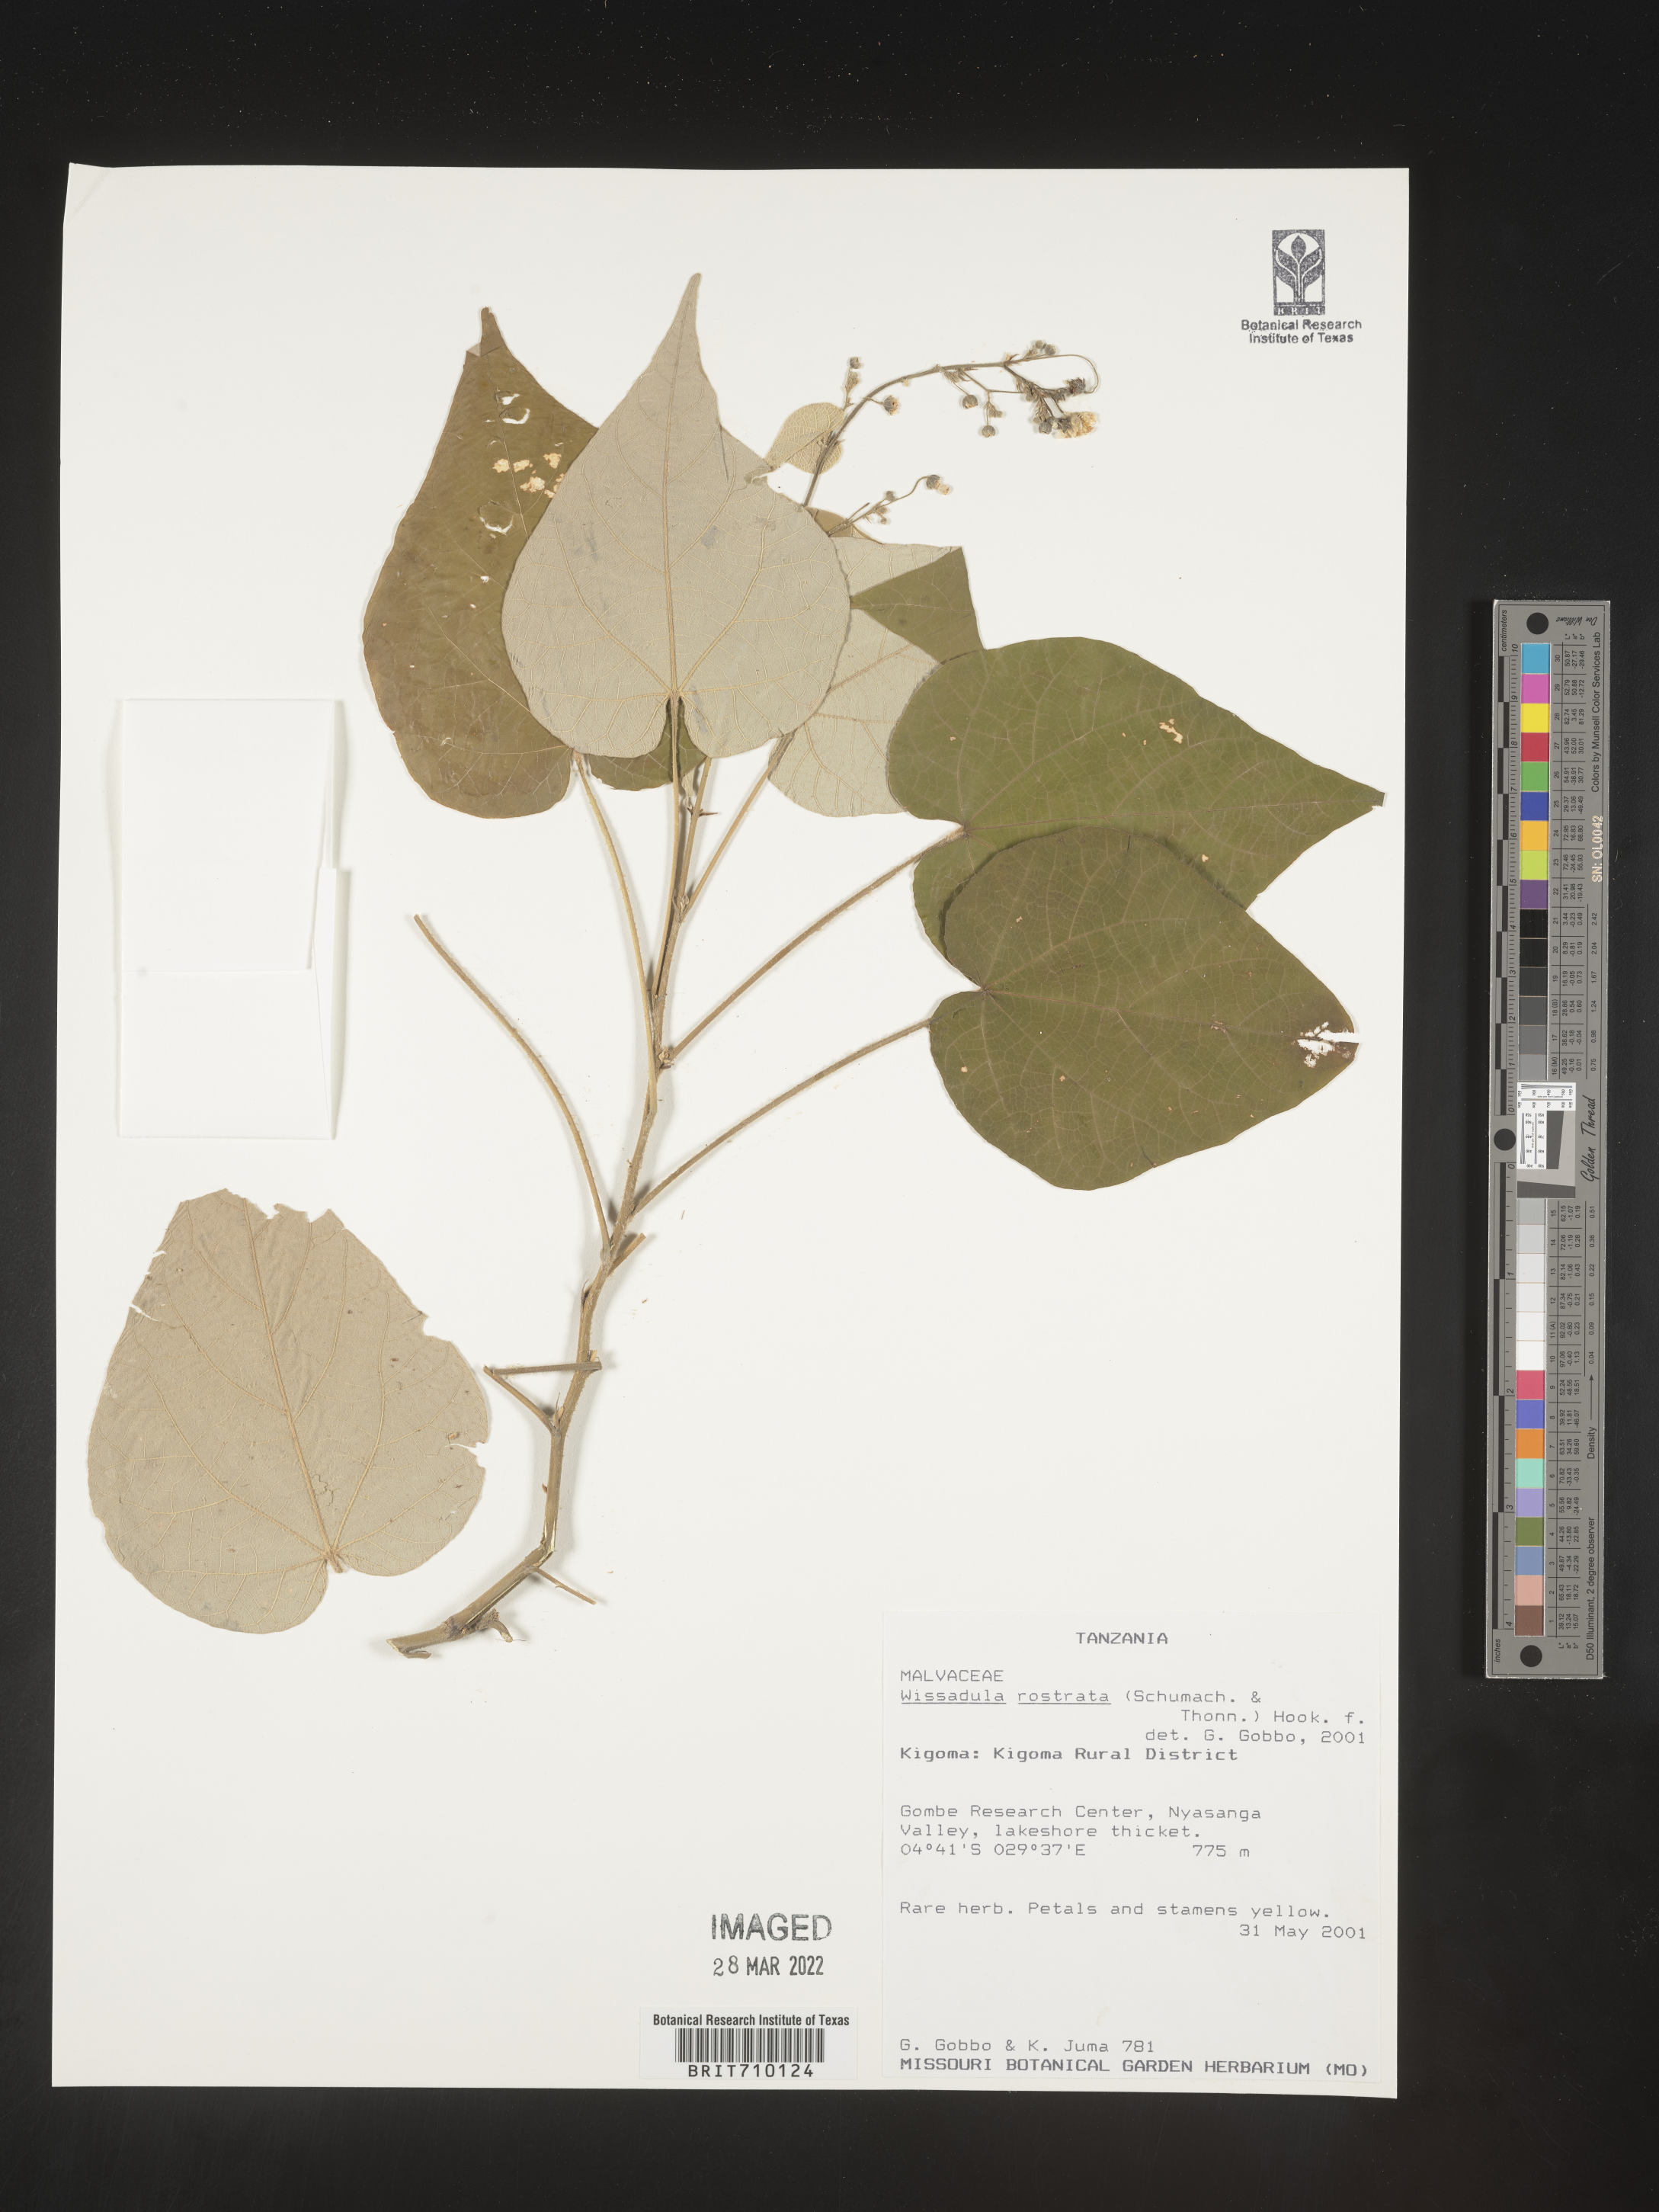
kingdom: Plantae
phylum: Tracheophyta
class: Magnoliopsida
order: Malvales
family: Malvaceae
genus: Wissadula
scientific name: Wissadula
